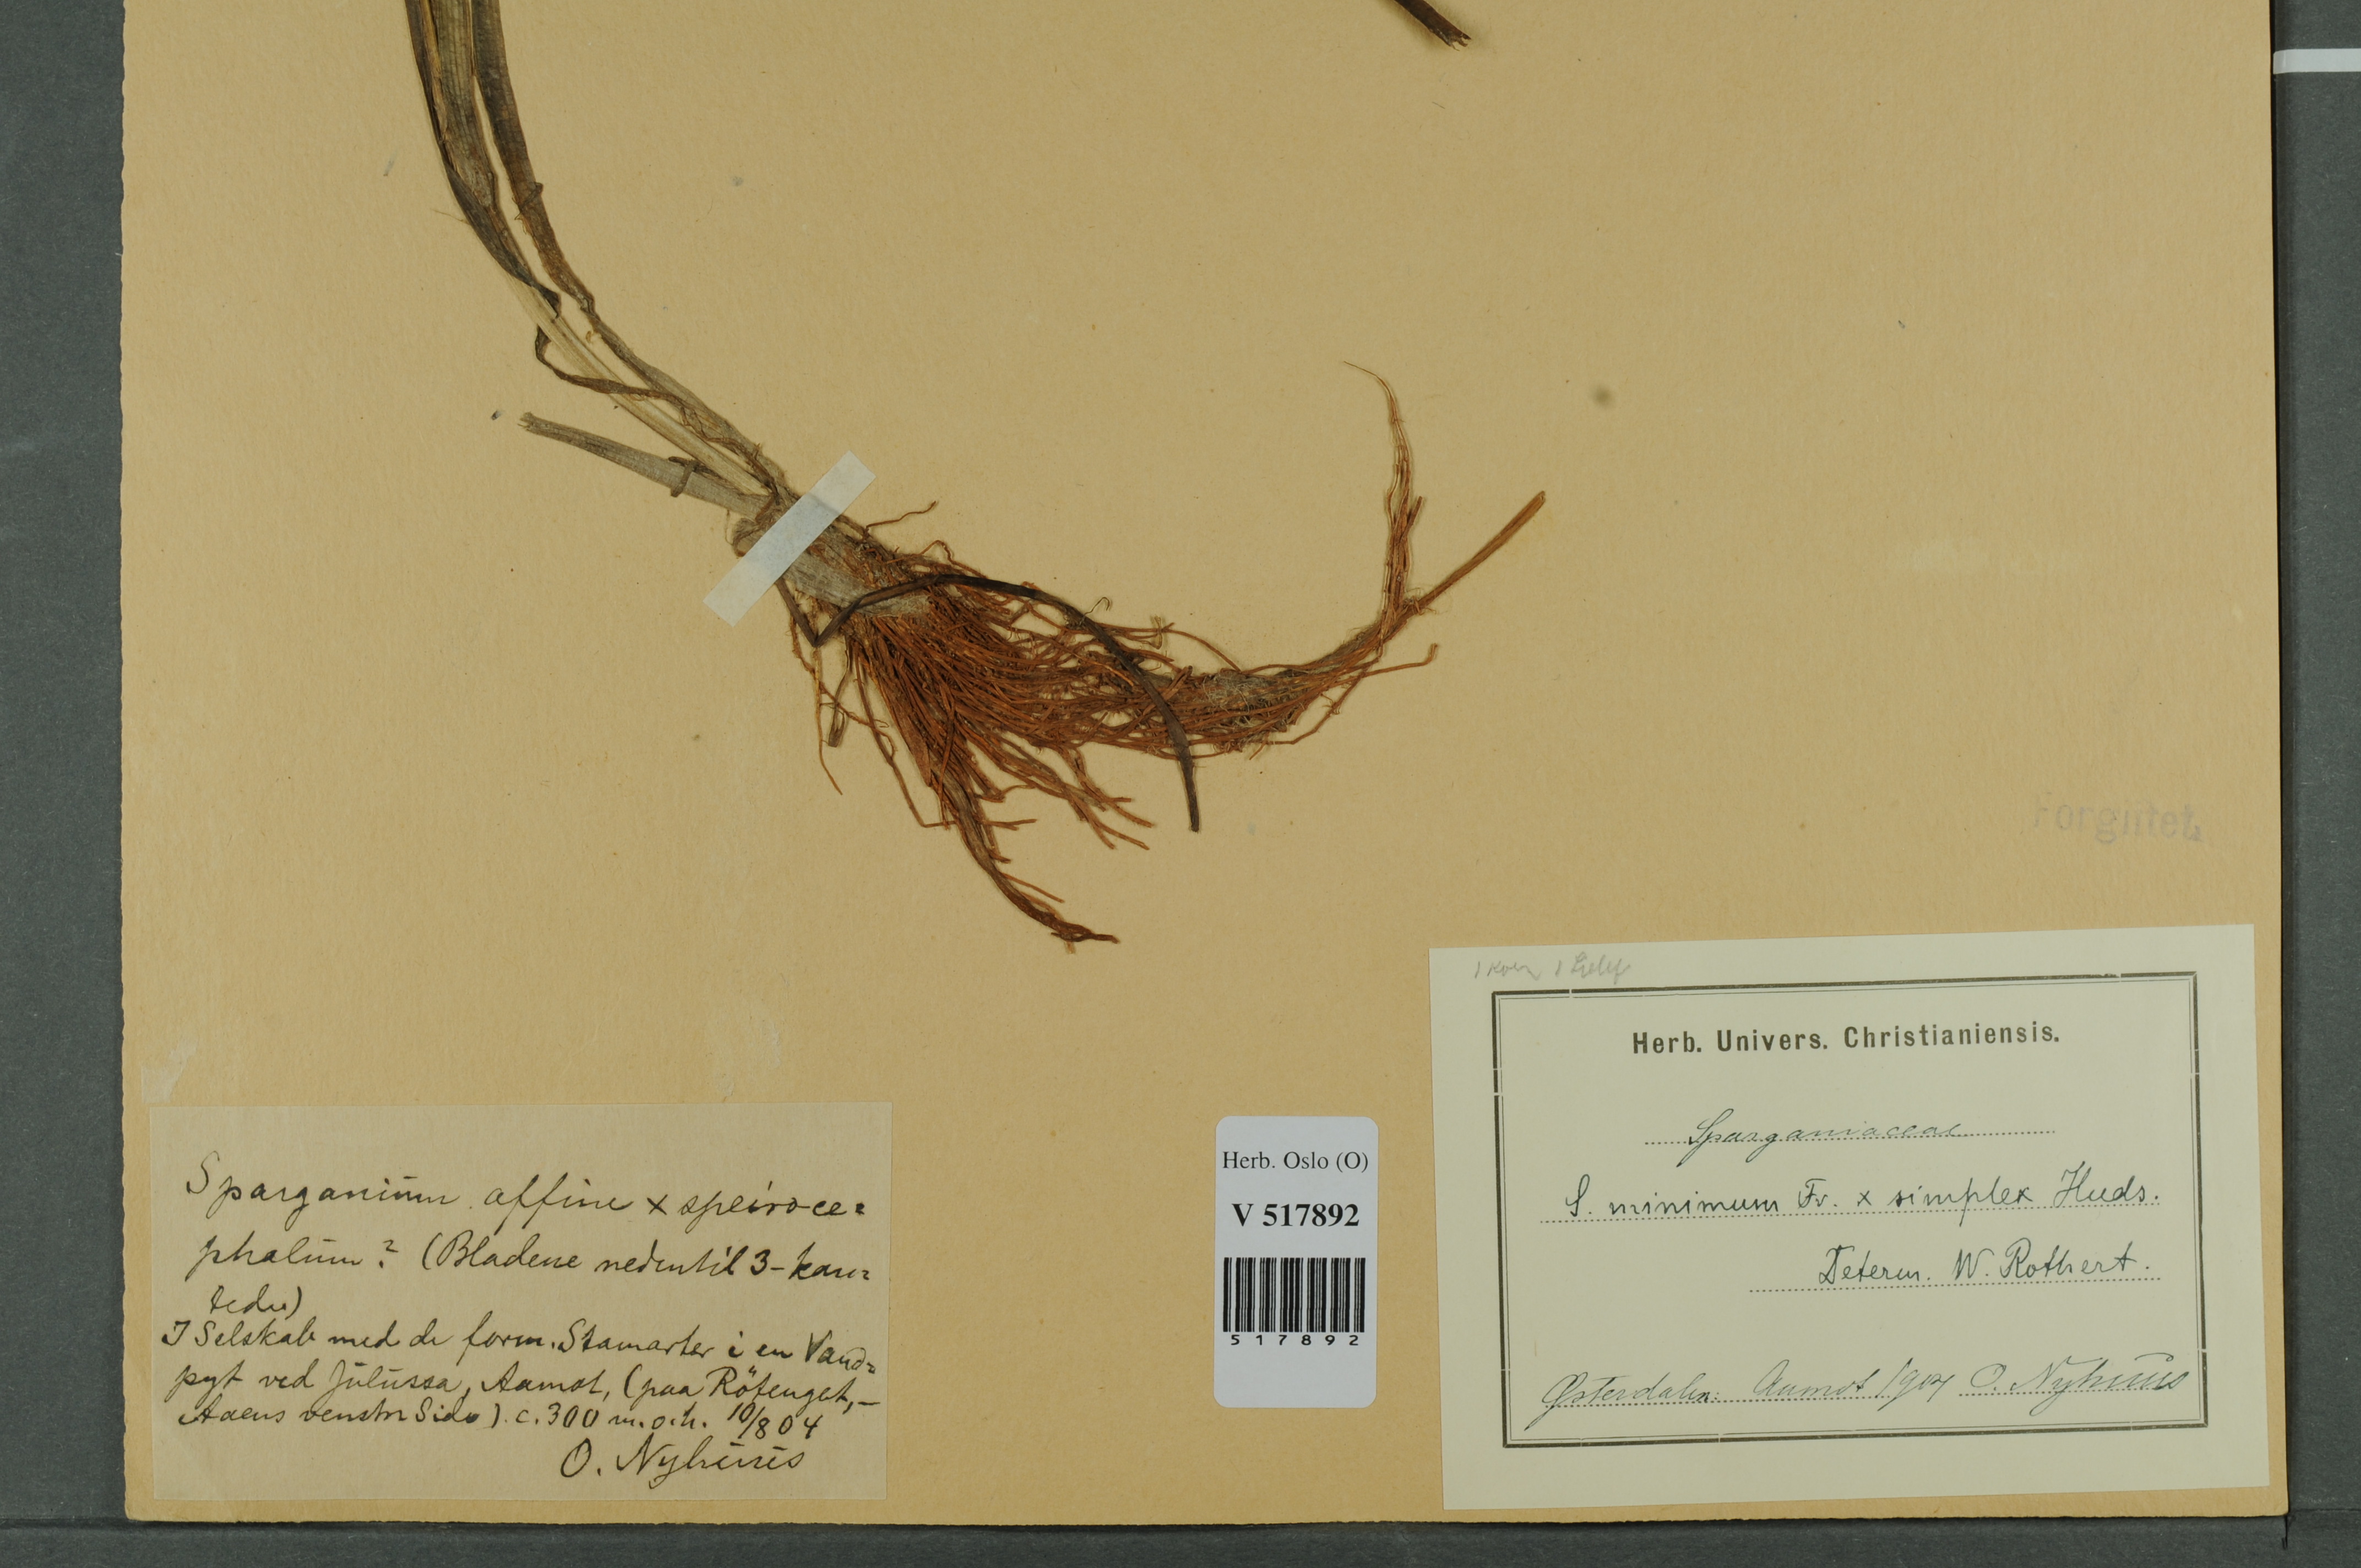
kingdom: Plantae
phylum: Tracheophyta
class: Liliopsida
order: Poales
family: Typhaceae
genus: Sparganium
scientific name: Sparganium
